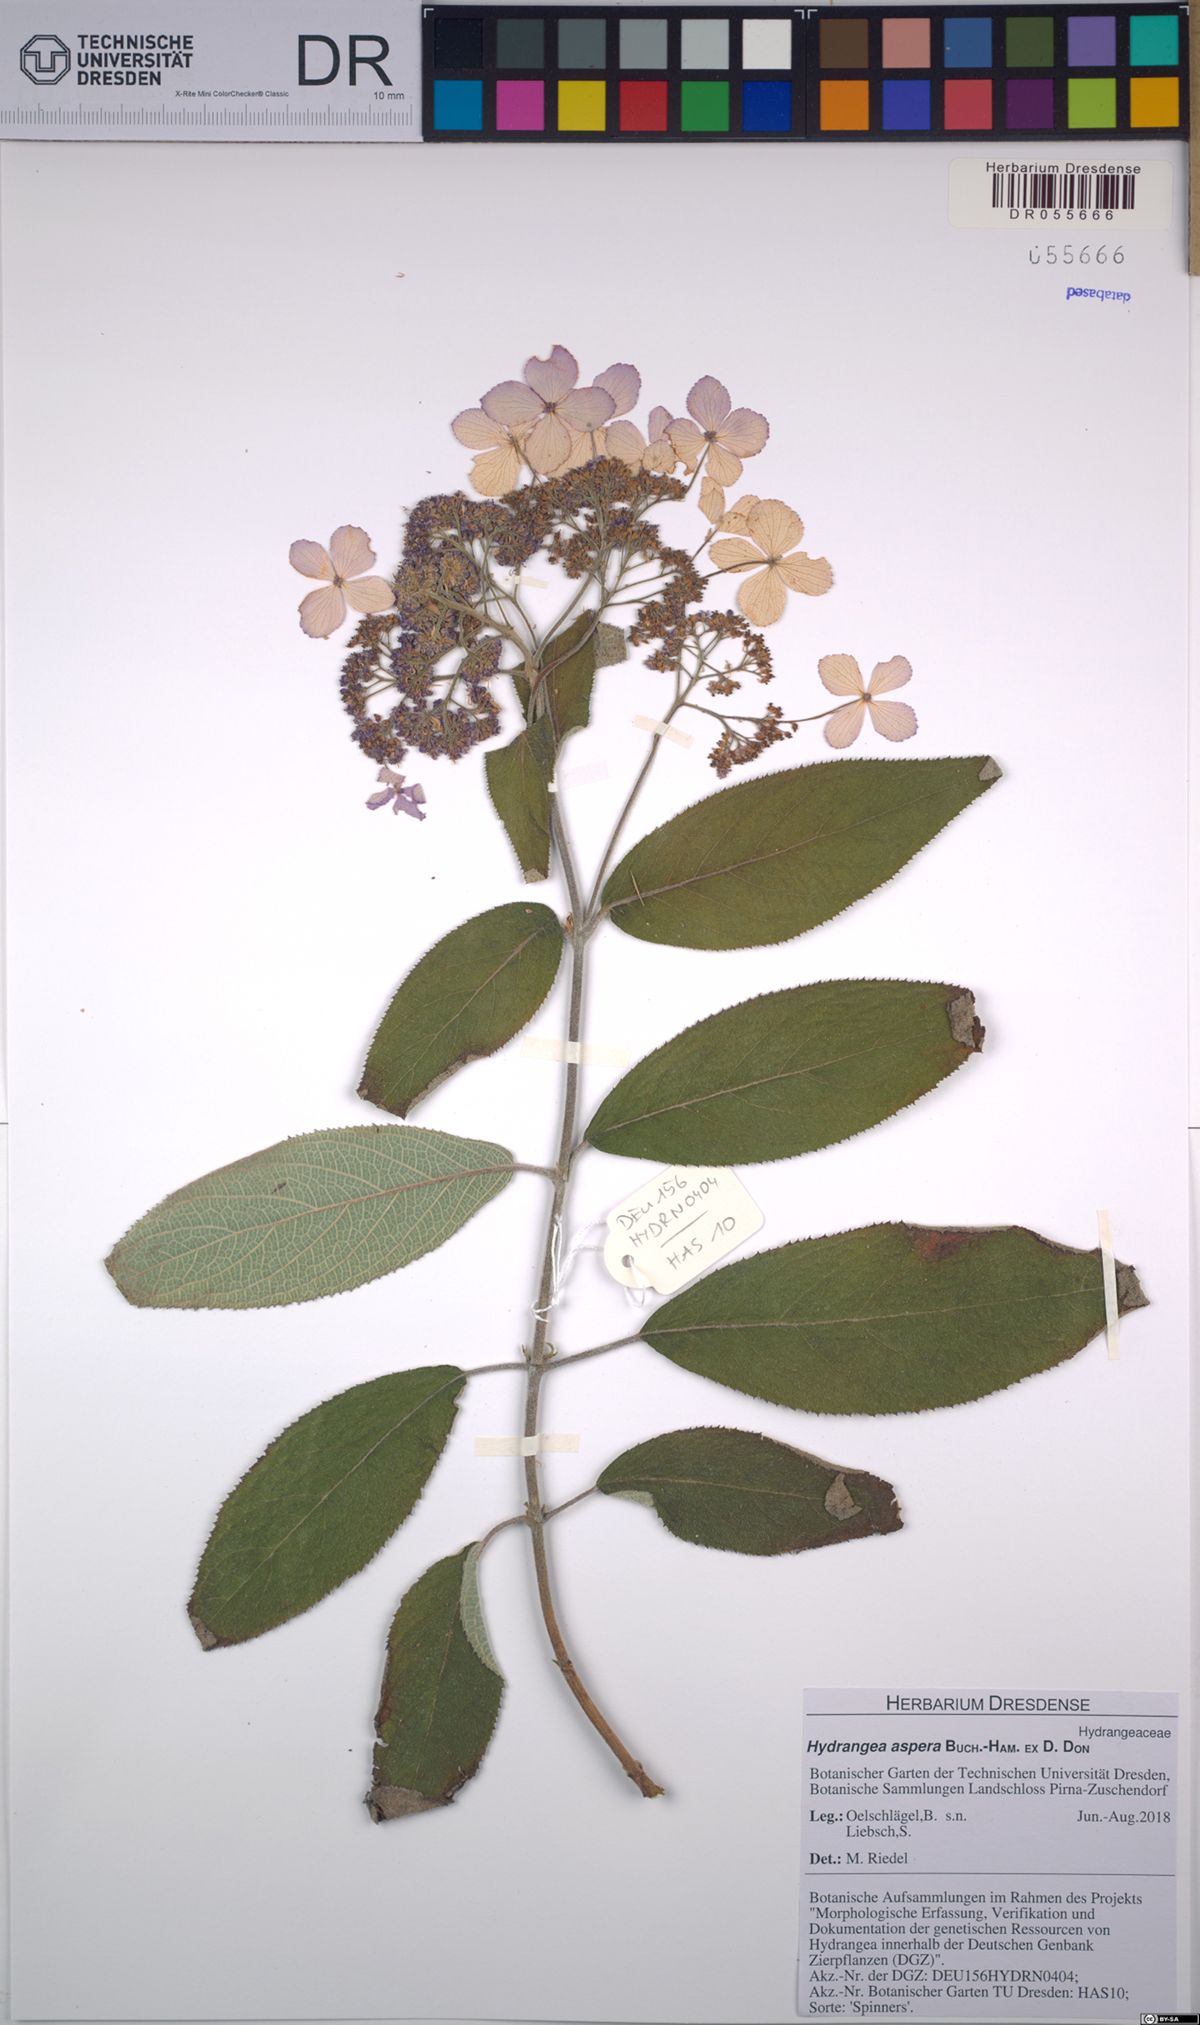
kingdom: Plantae
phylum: Tracheophyta
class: Magnoliopsida
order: Cornales
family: Hydrangeaceae
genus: Hydrangea
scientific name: Hydrangea aspera
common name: Rough-leaf hydrangea
